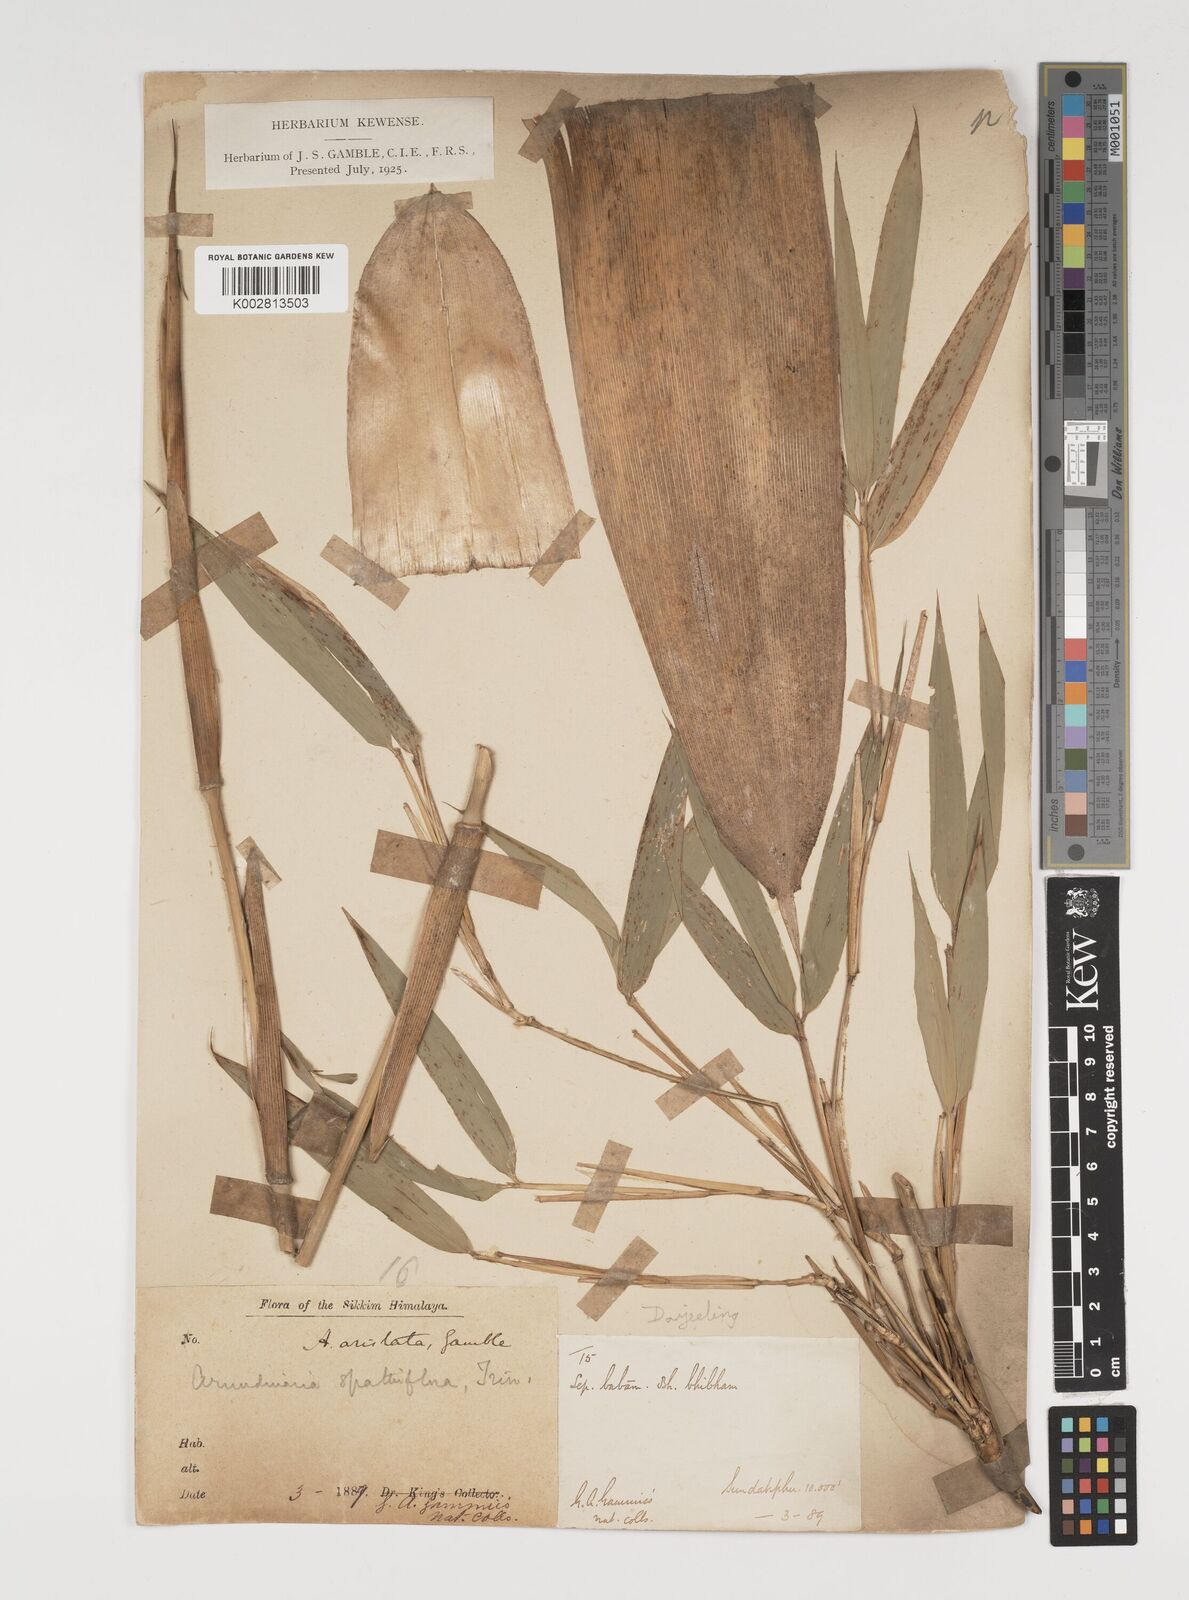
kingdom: Plantae
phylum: Tracheophyta
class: Liliopsida
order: Poales
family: Poaceae
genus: Thamnocalamus
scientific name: Thamnocalamus spathiflorus
